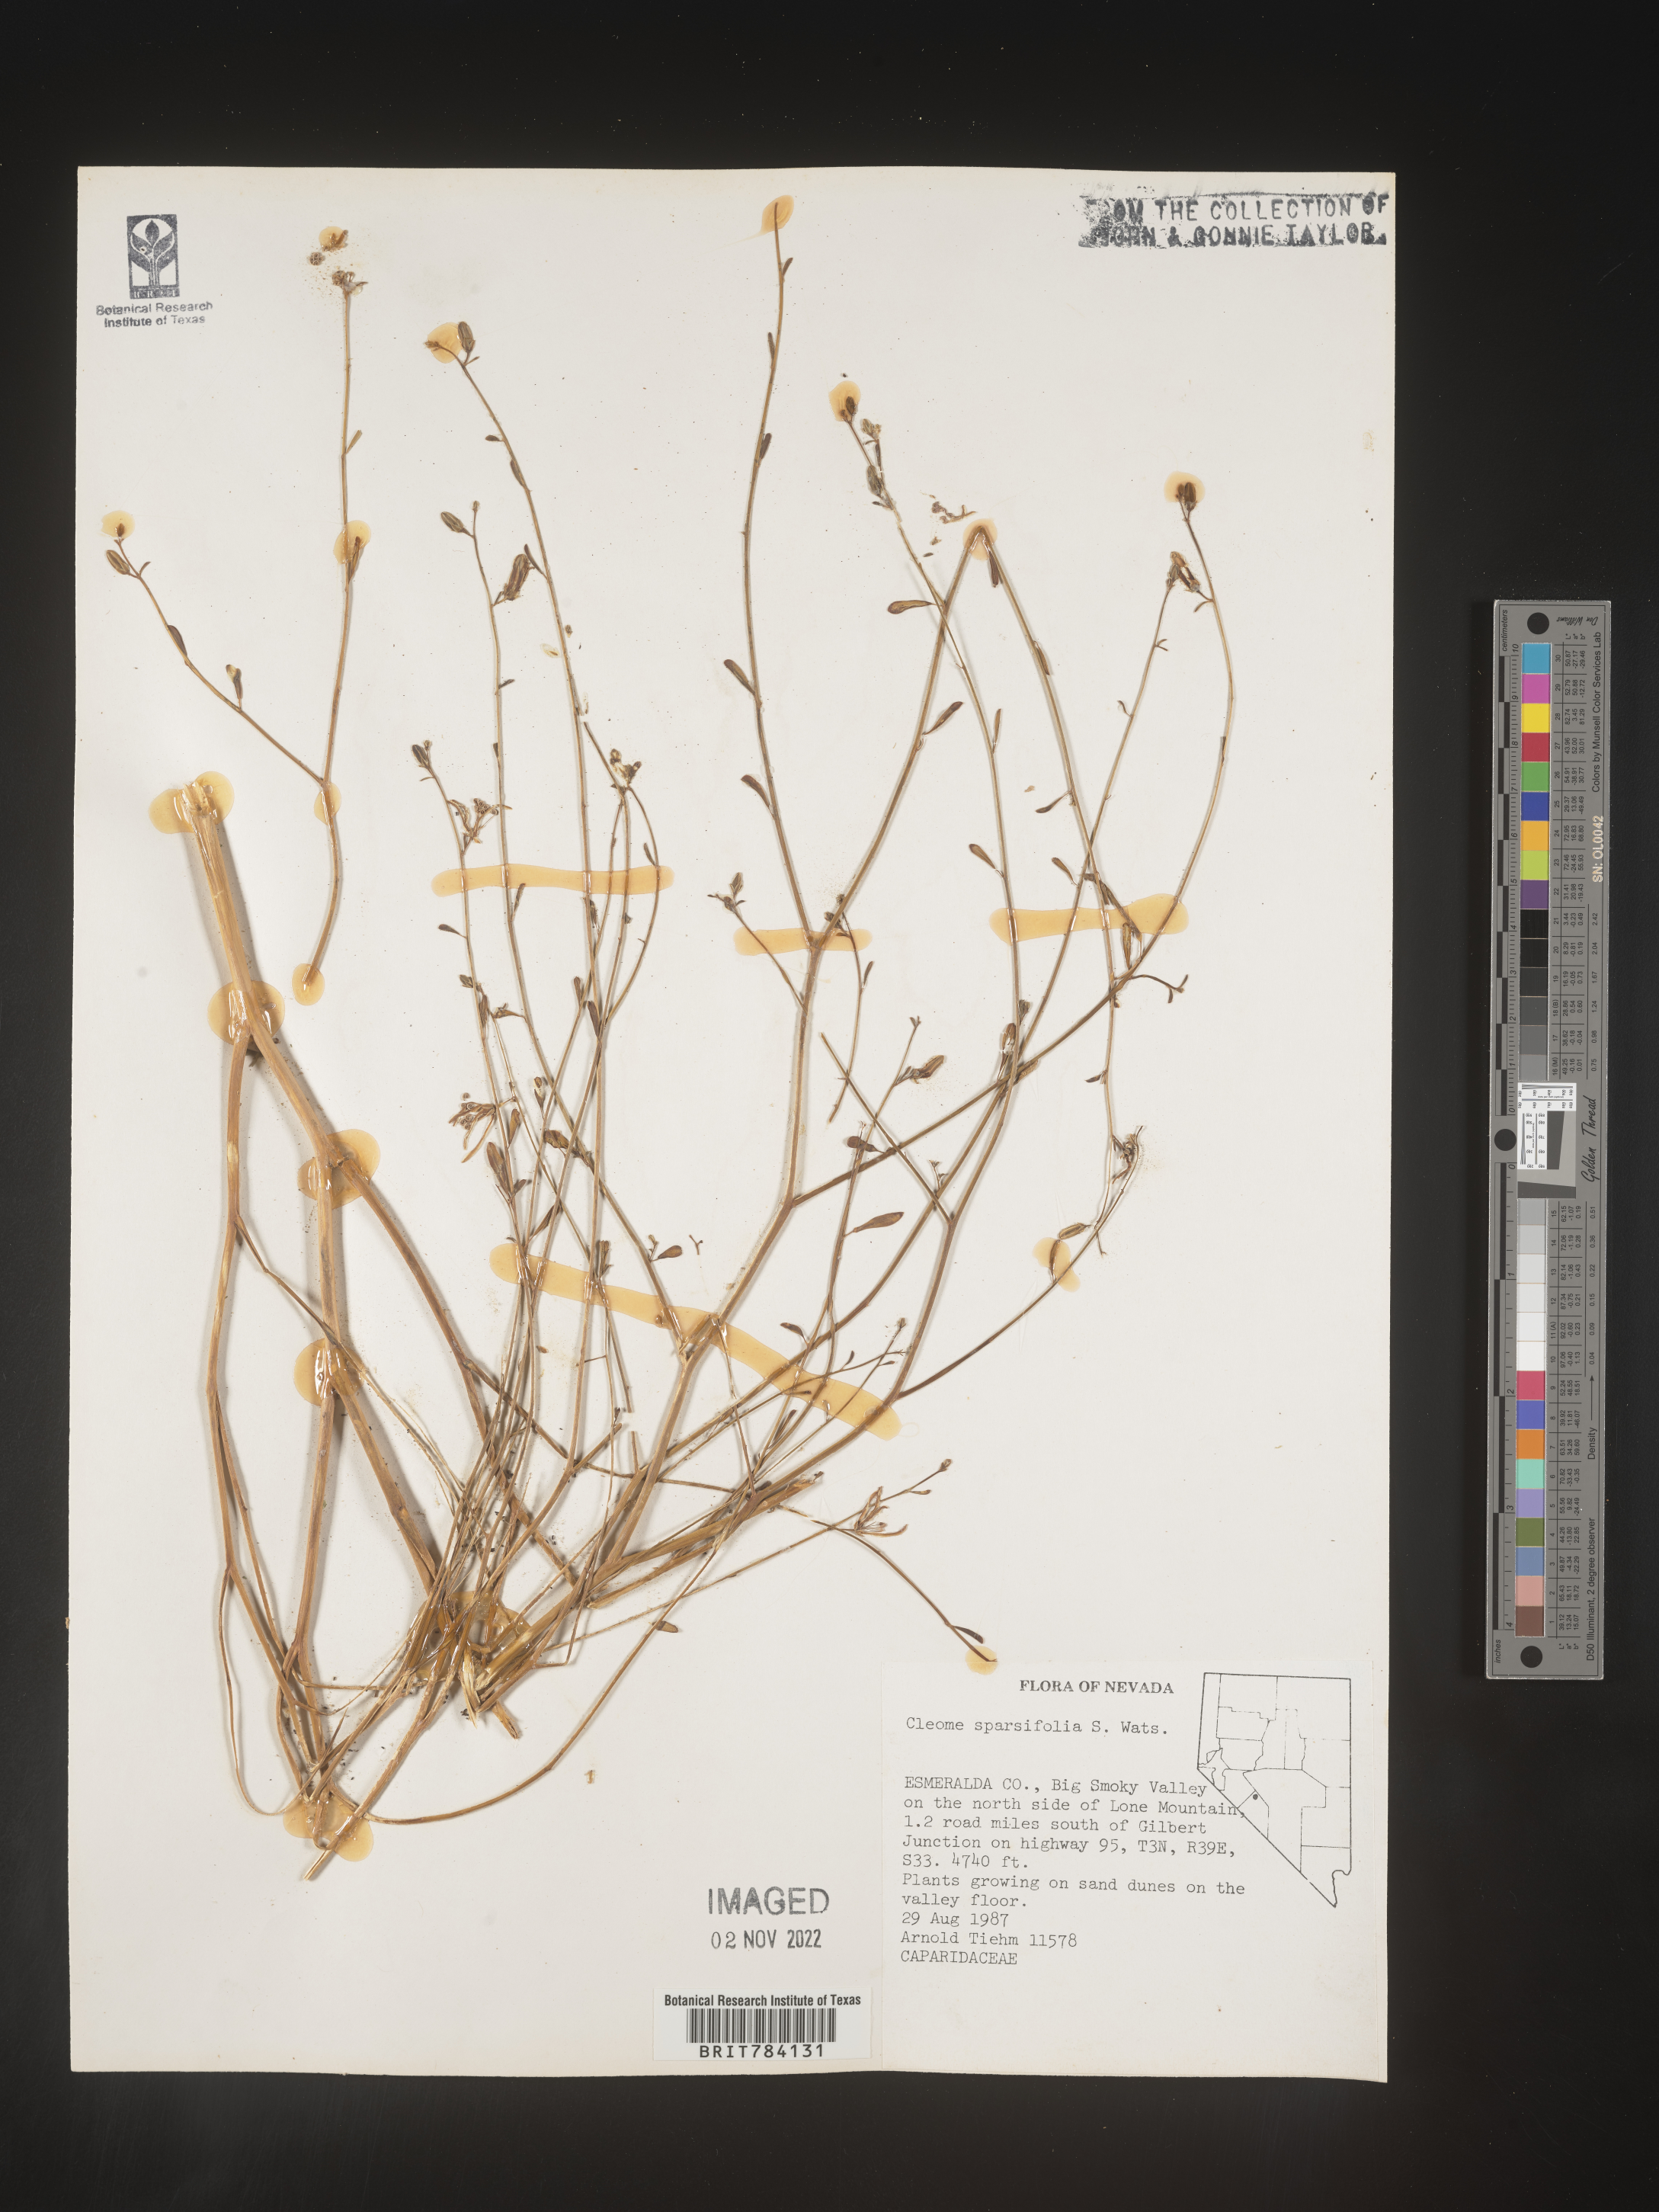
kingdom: Plantae
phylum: Tracheophyta
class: Magnoliopsida
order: Brassicales
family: Cleomaceae
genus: Cleome
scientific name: Cleome
